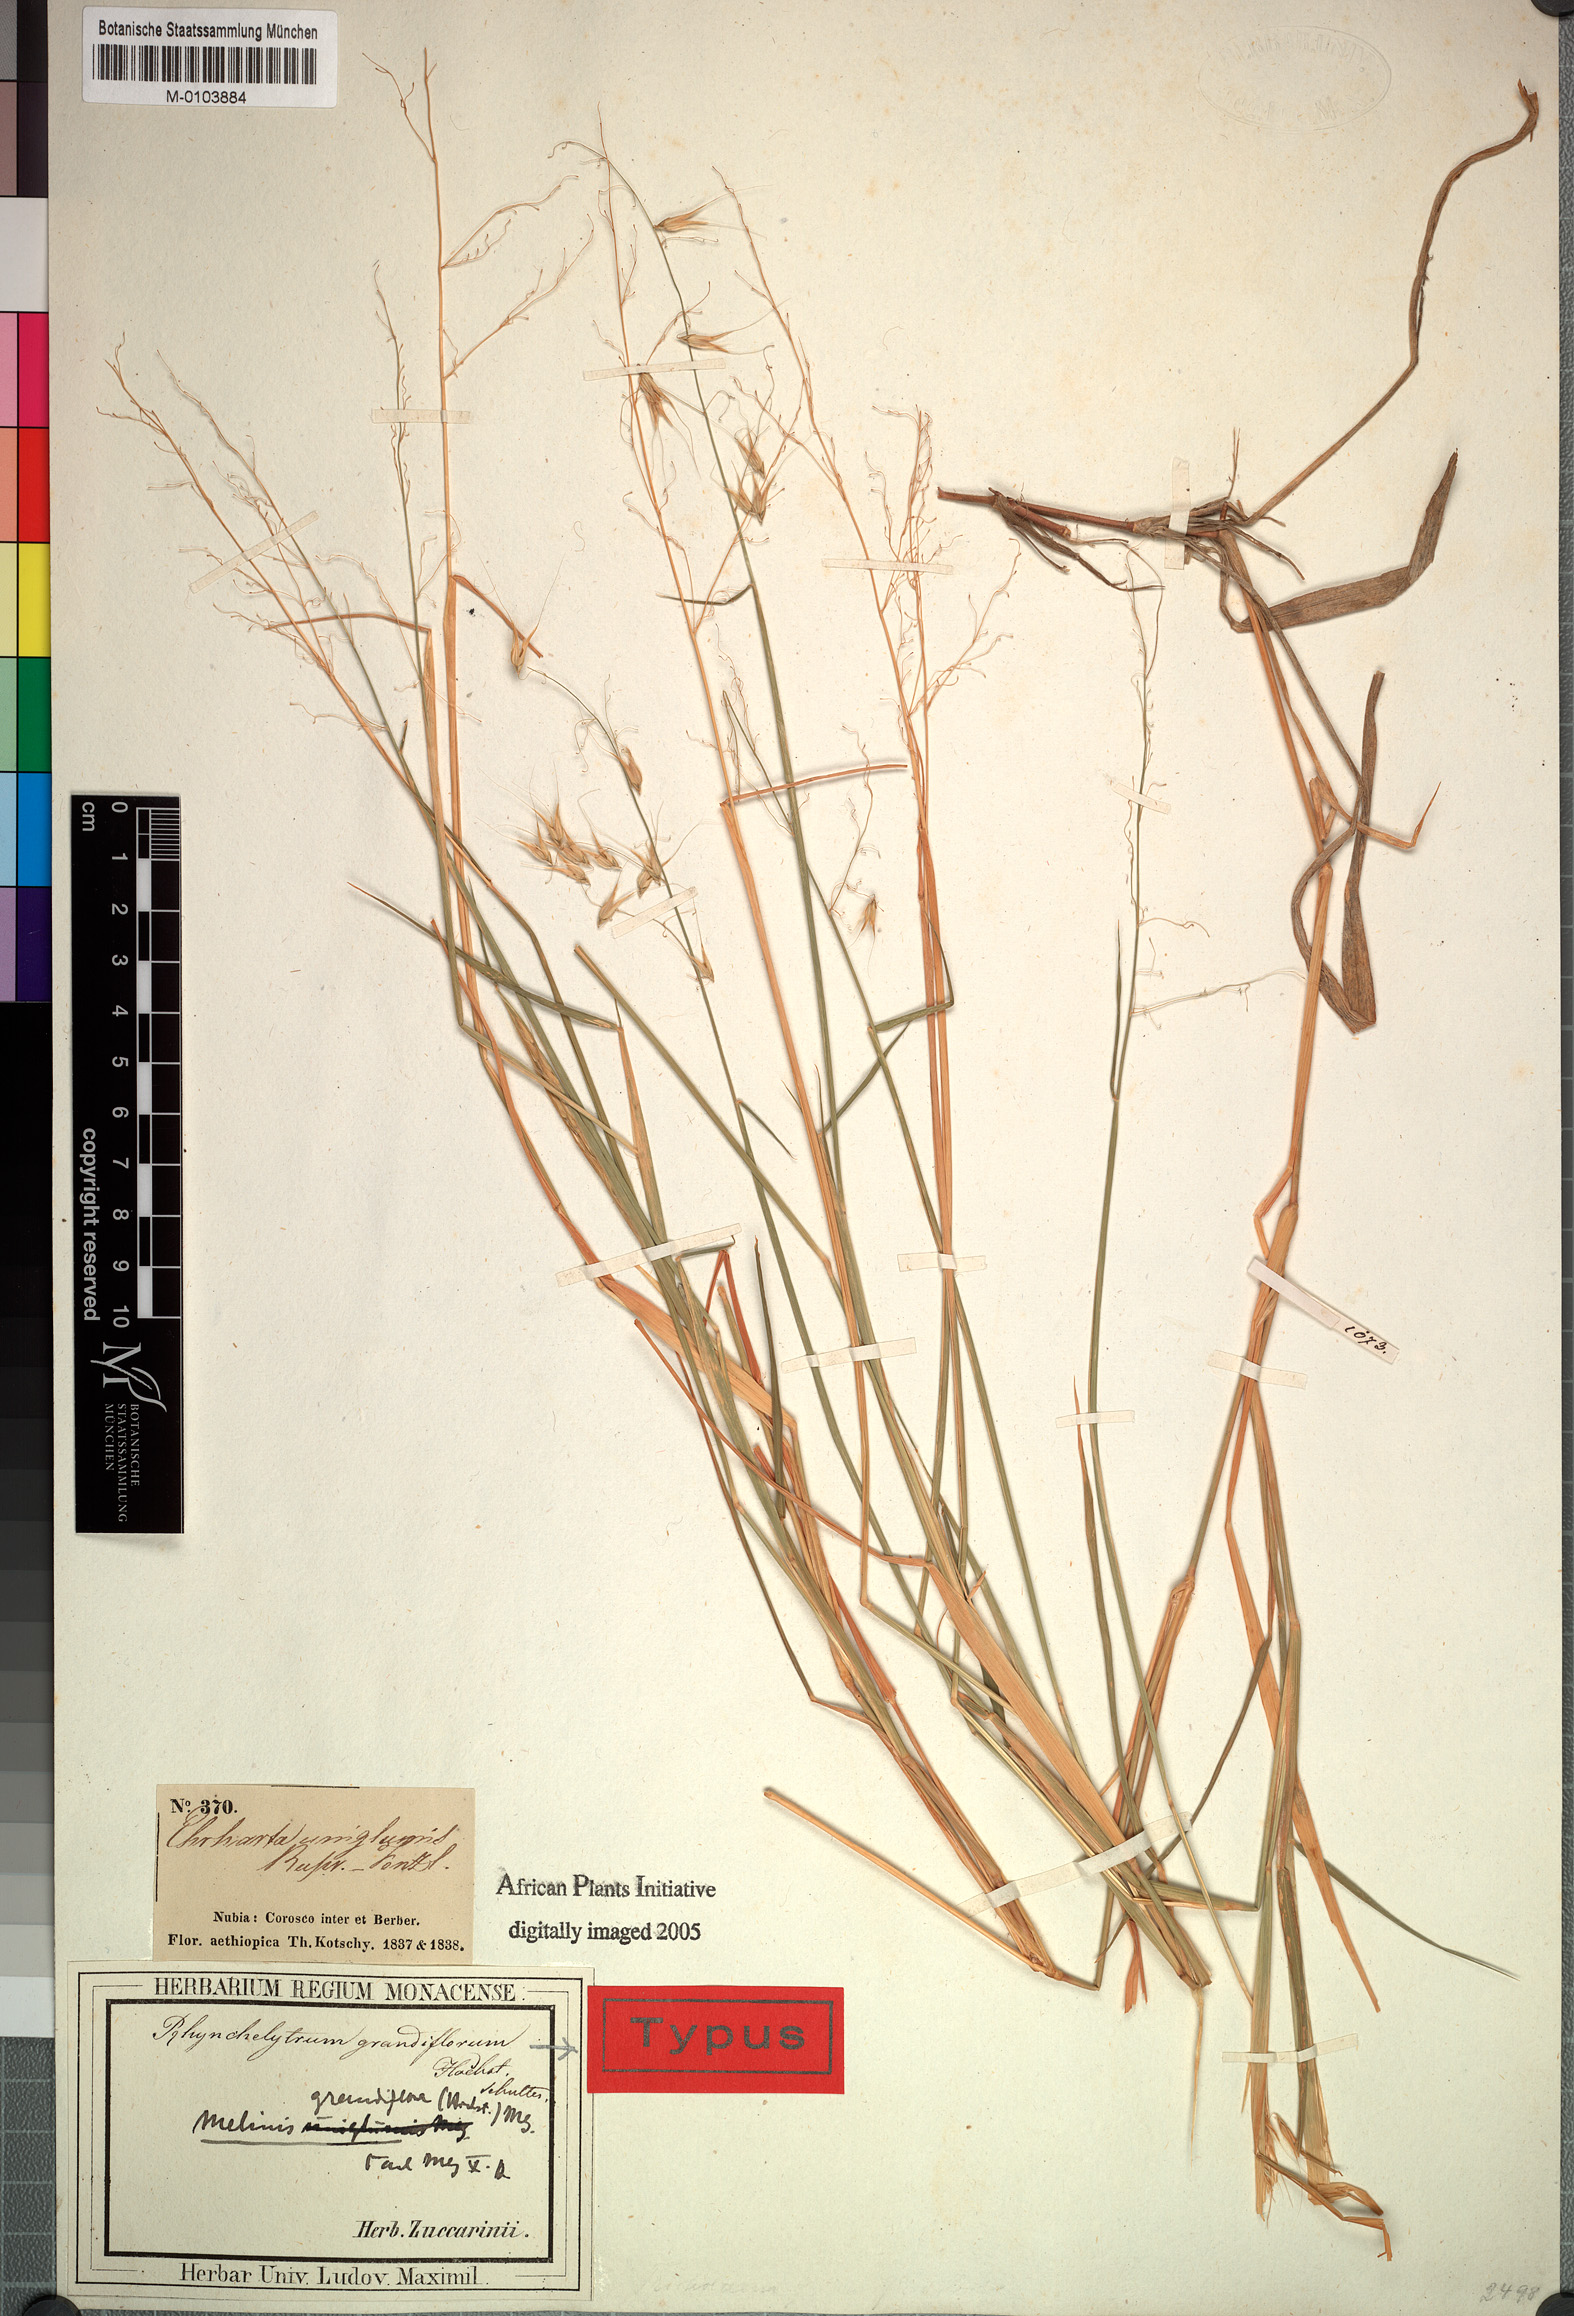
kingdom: Plantae
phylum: Tracheophyta
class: Liliopsida
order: Poales
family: Poaceae
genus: Melinis
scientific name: Melinis repens
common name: Rose natal grass
